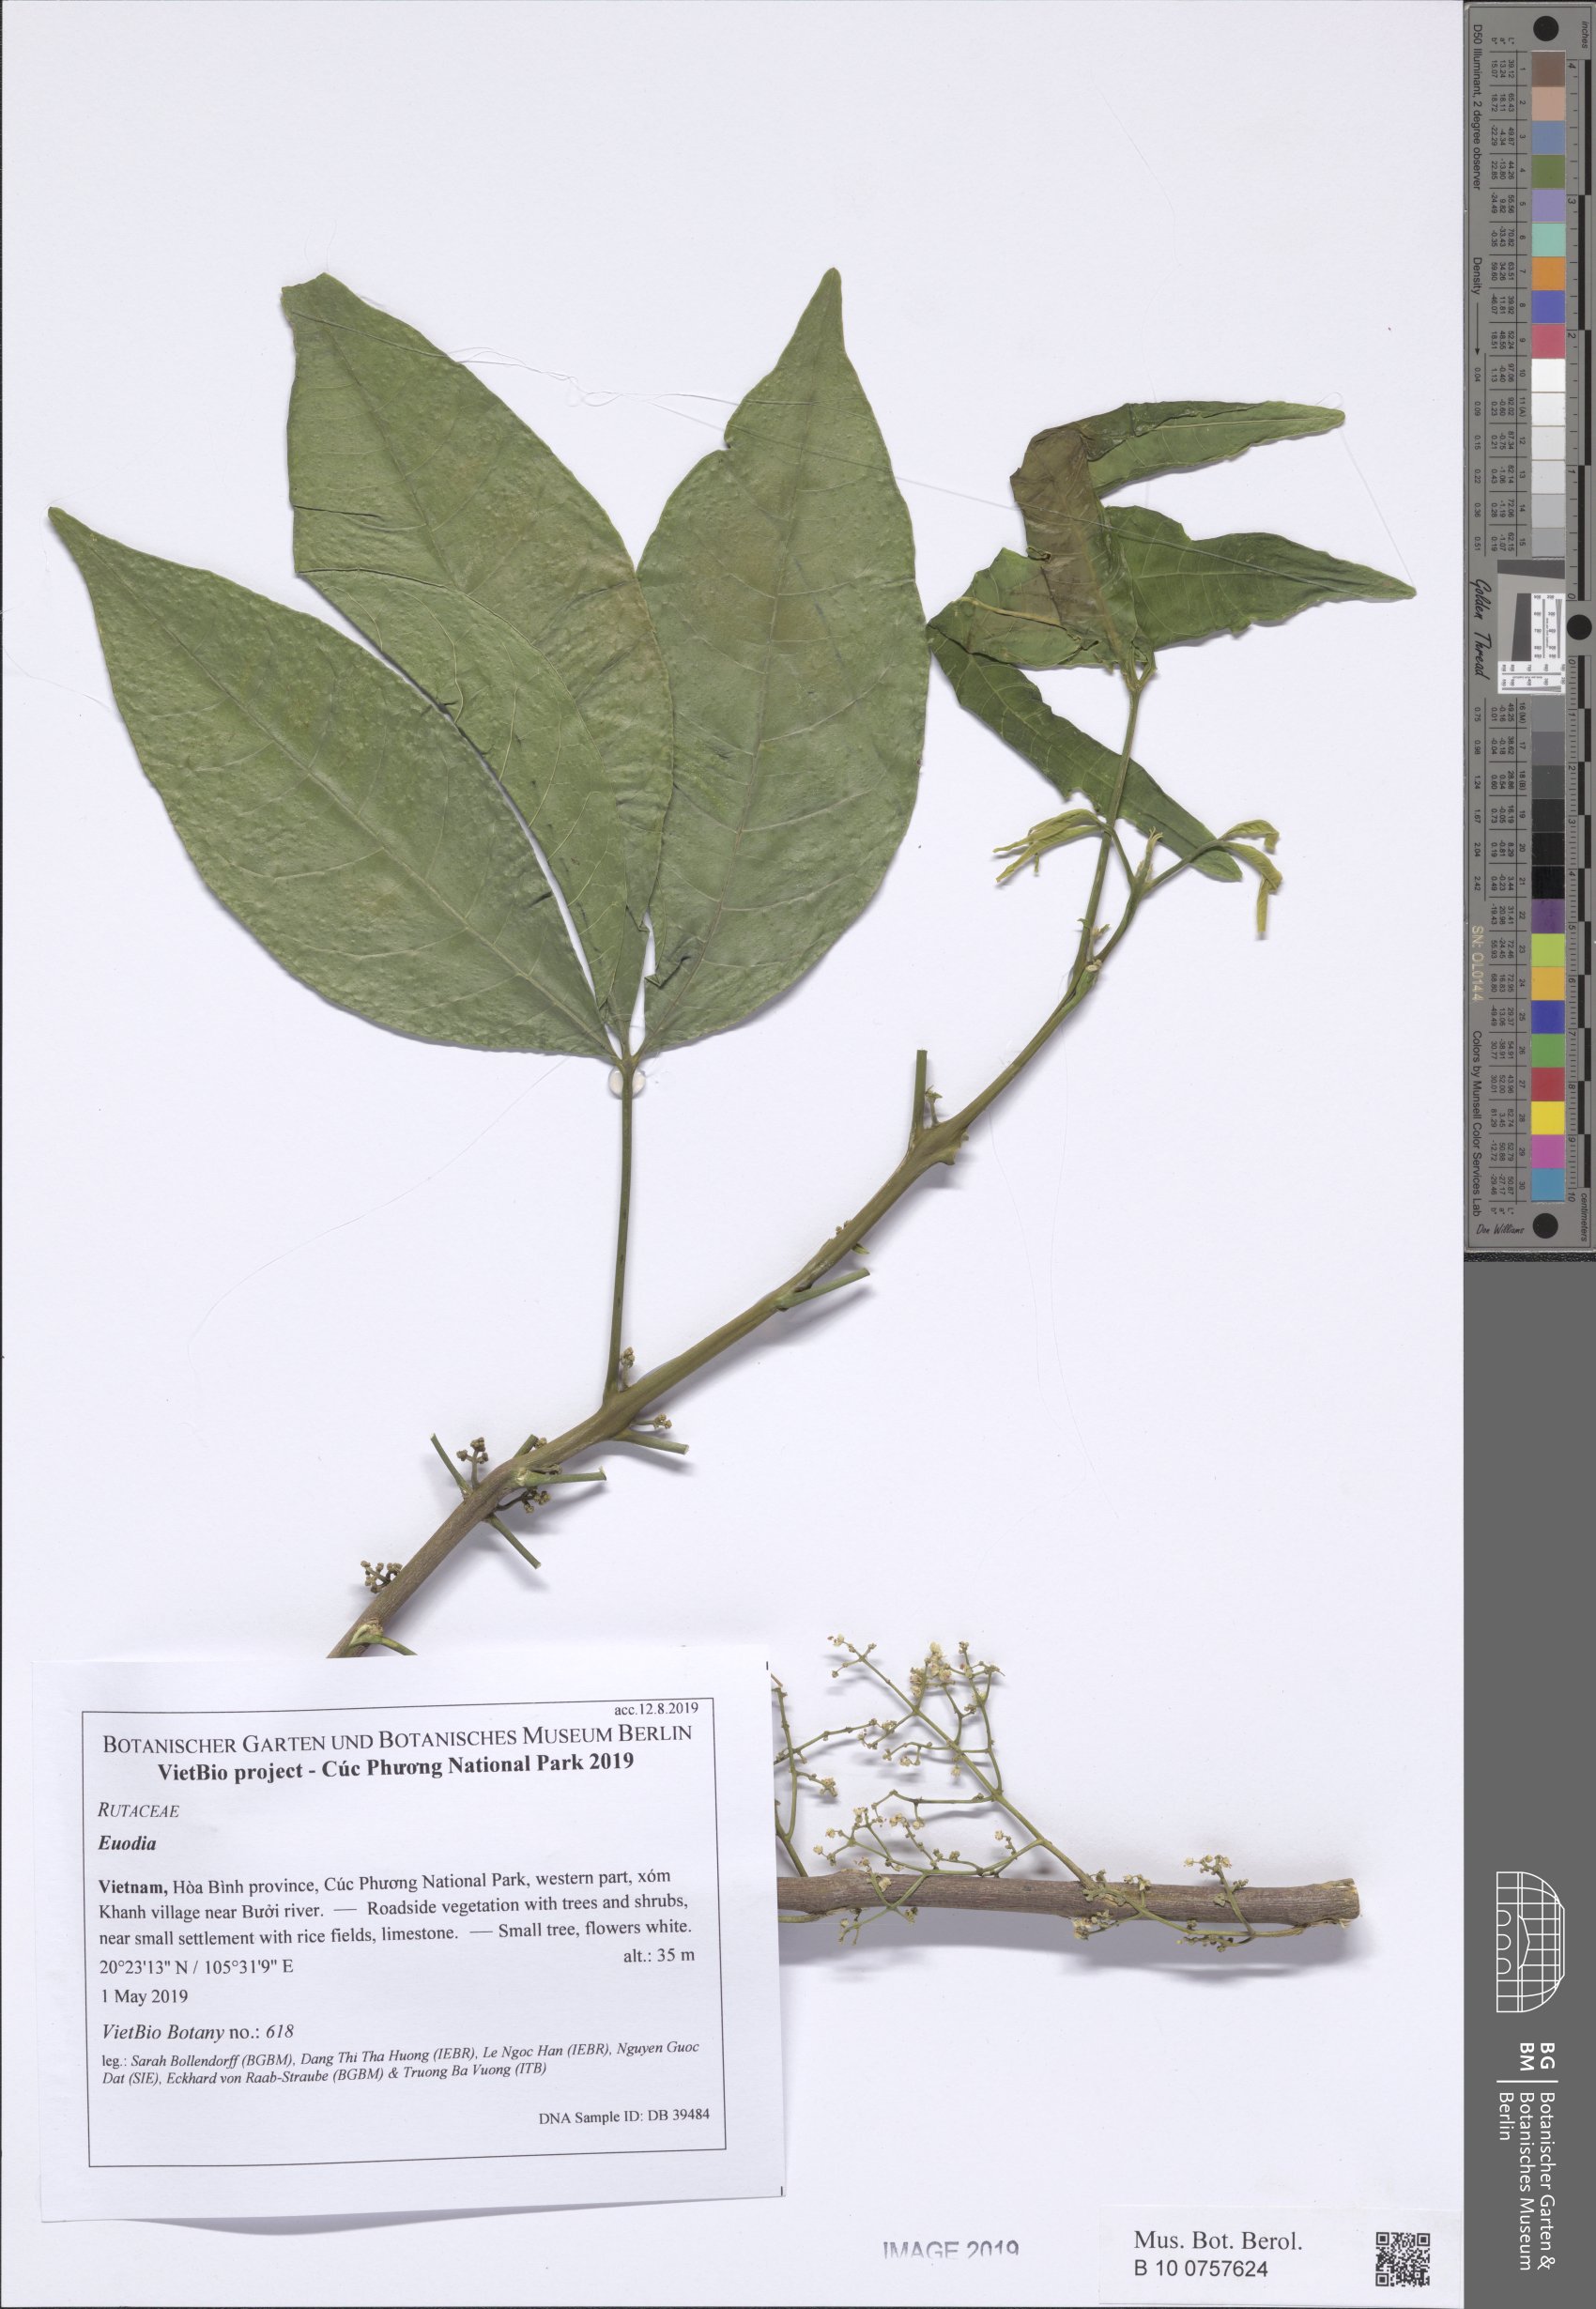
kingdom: Plantae
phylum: Tracheophyta
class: Magnoliopsida
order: Sapindales
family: Rutaceae
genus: Melicope
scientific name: Melicope pteleifolia
